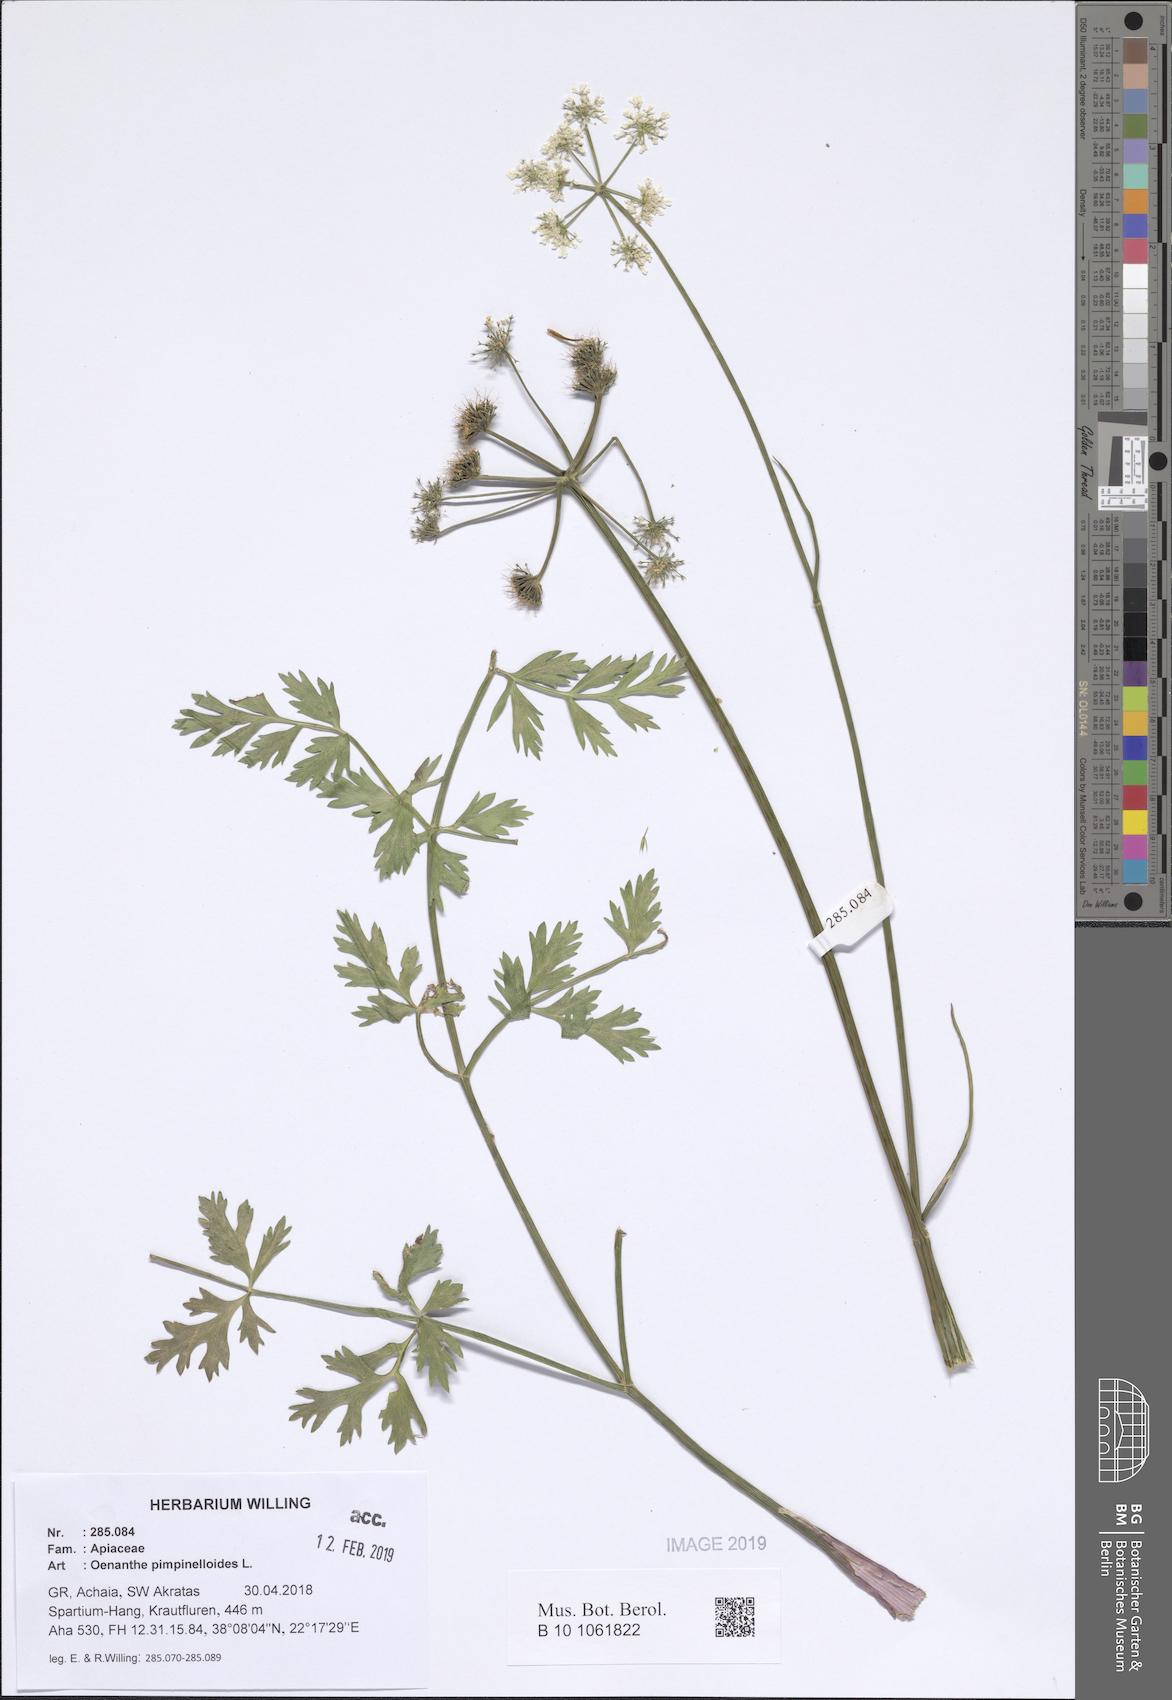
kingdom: Plantae
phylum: Tracheophyta
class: Magnoliopsida
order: Apiales
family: Apiaceae
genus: Oenanthe
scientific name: Oenanthe pimpinelloides
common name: Corky-fruited water-dropwort
